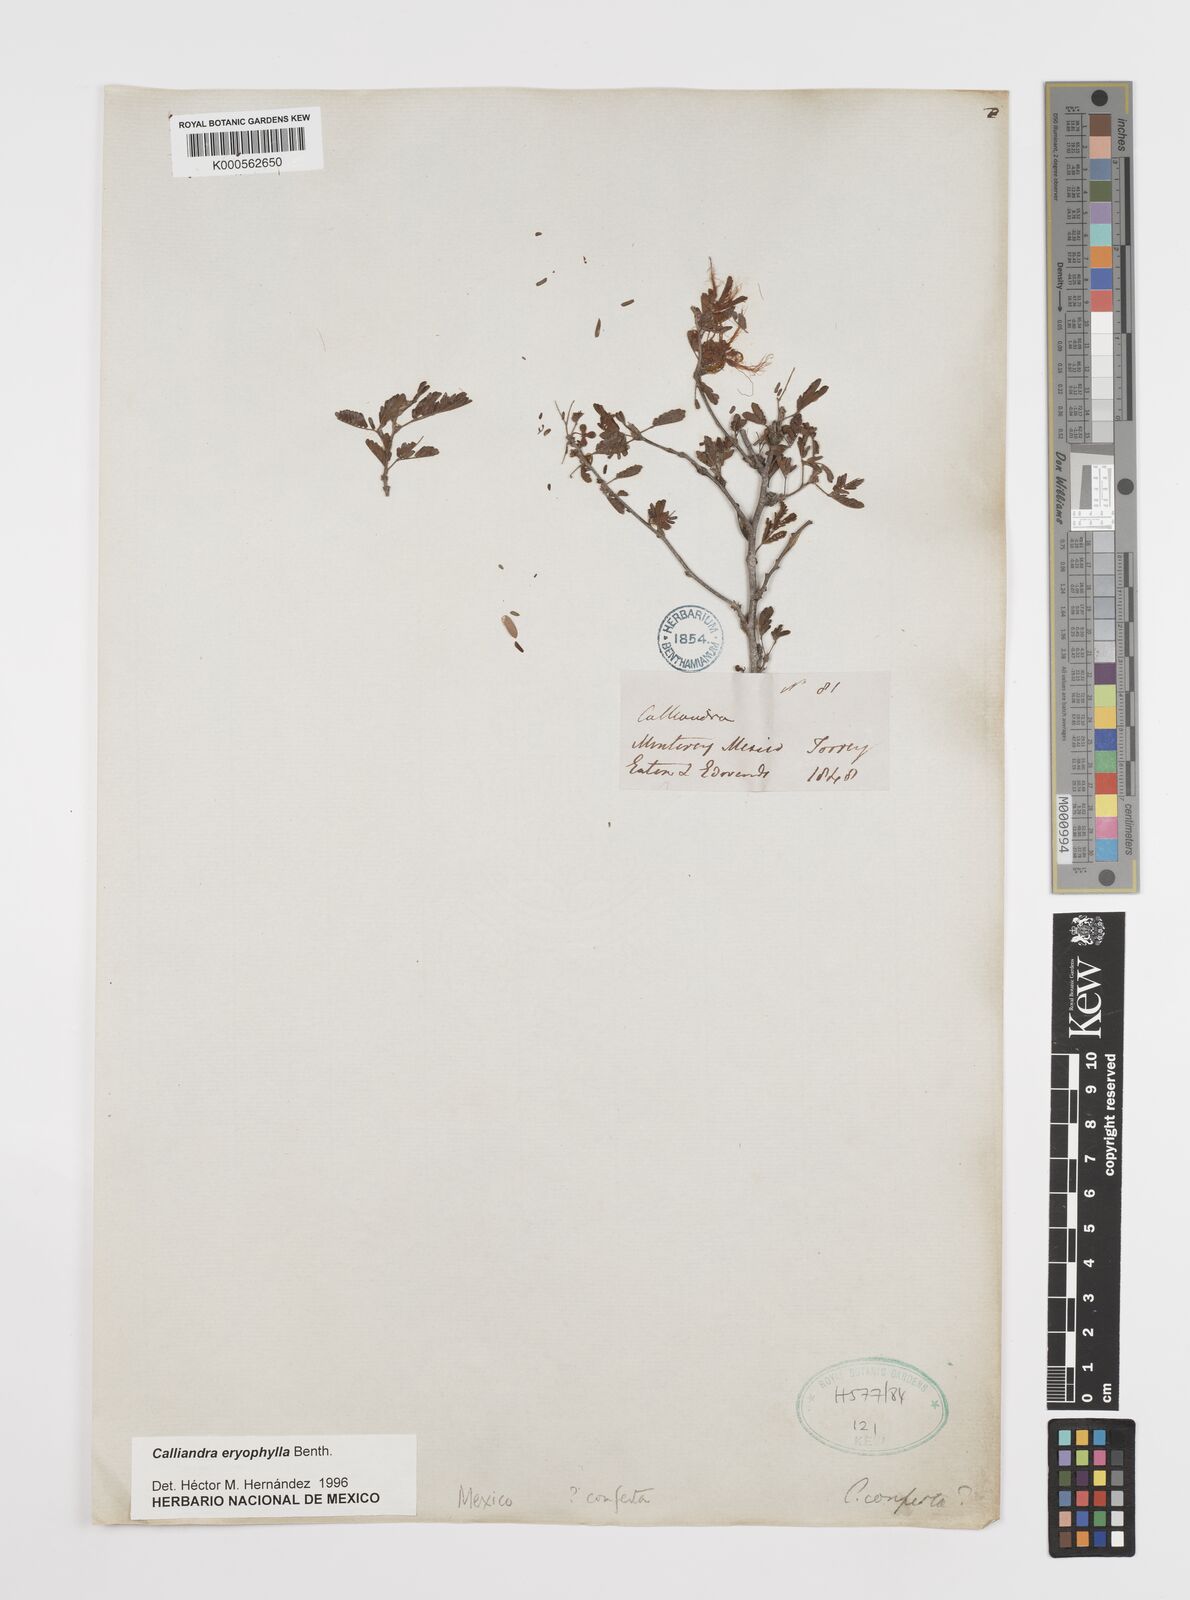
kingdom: Plantae
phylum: Tracheophyta
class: Magnoliopsida
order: Fabales
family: Fabaceae
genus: Calliandra
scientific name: Calliandra eriophylla
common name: Fairy-duster
